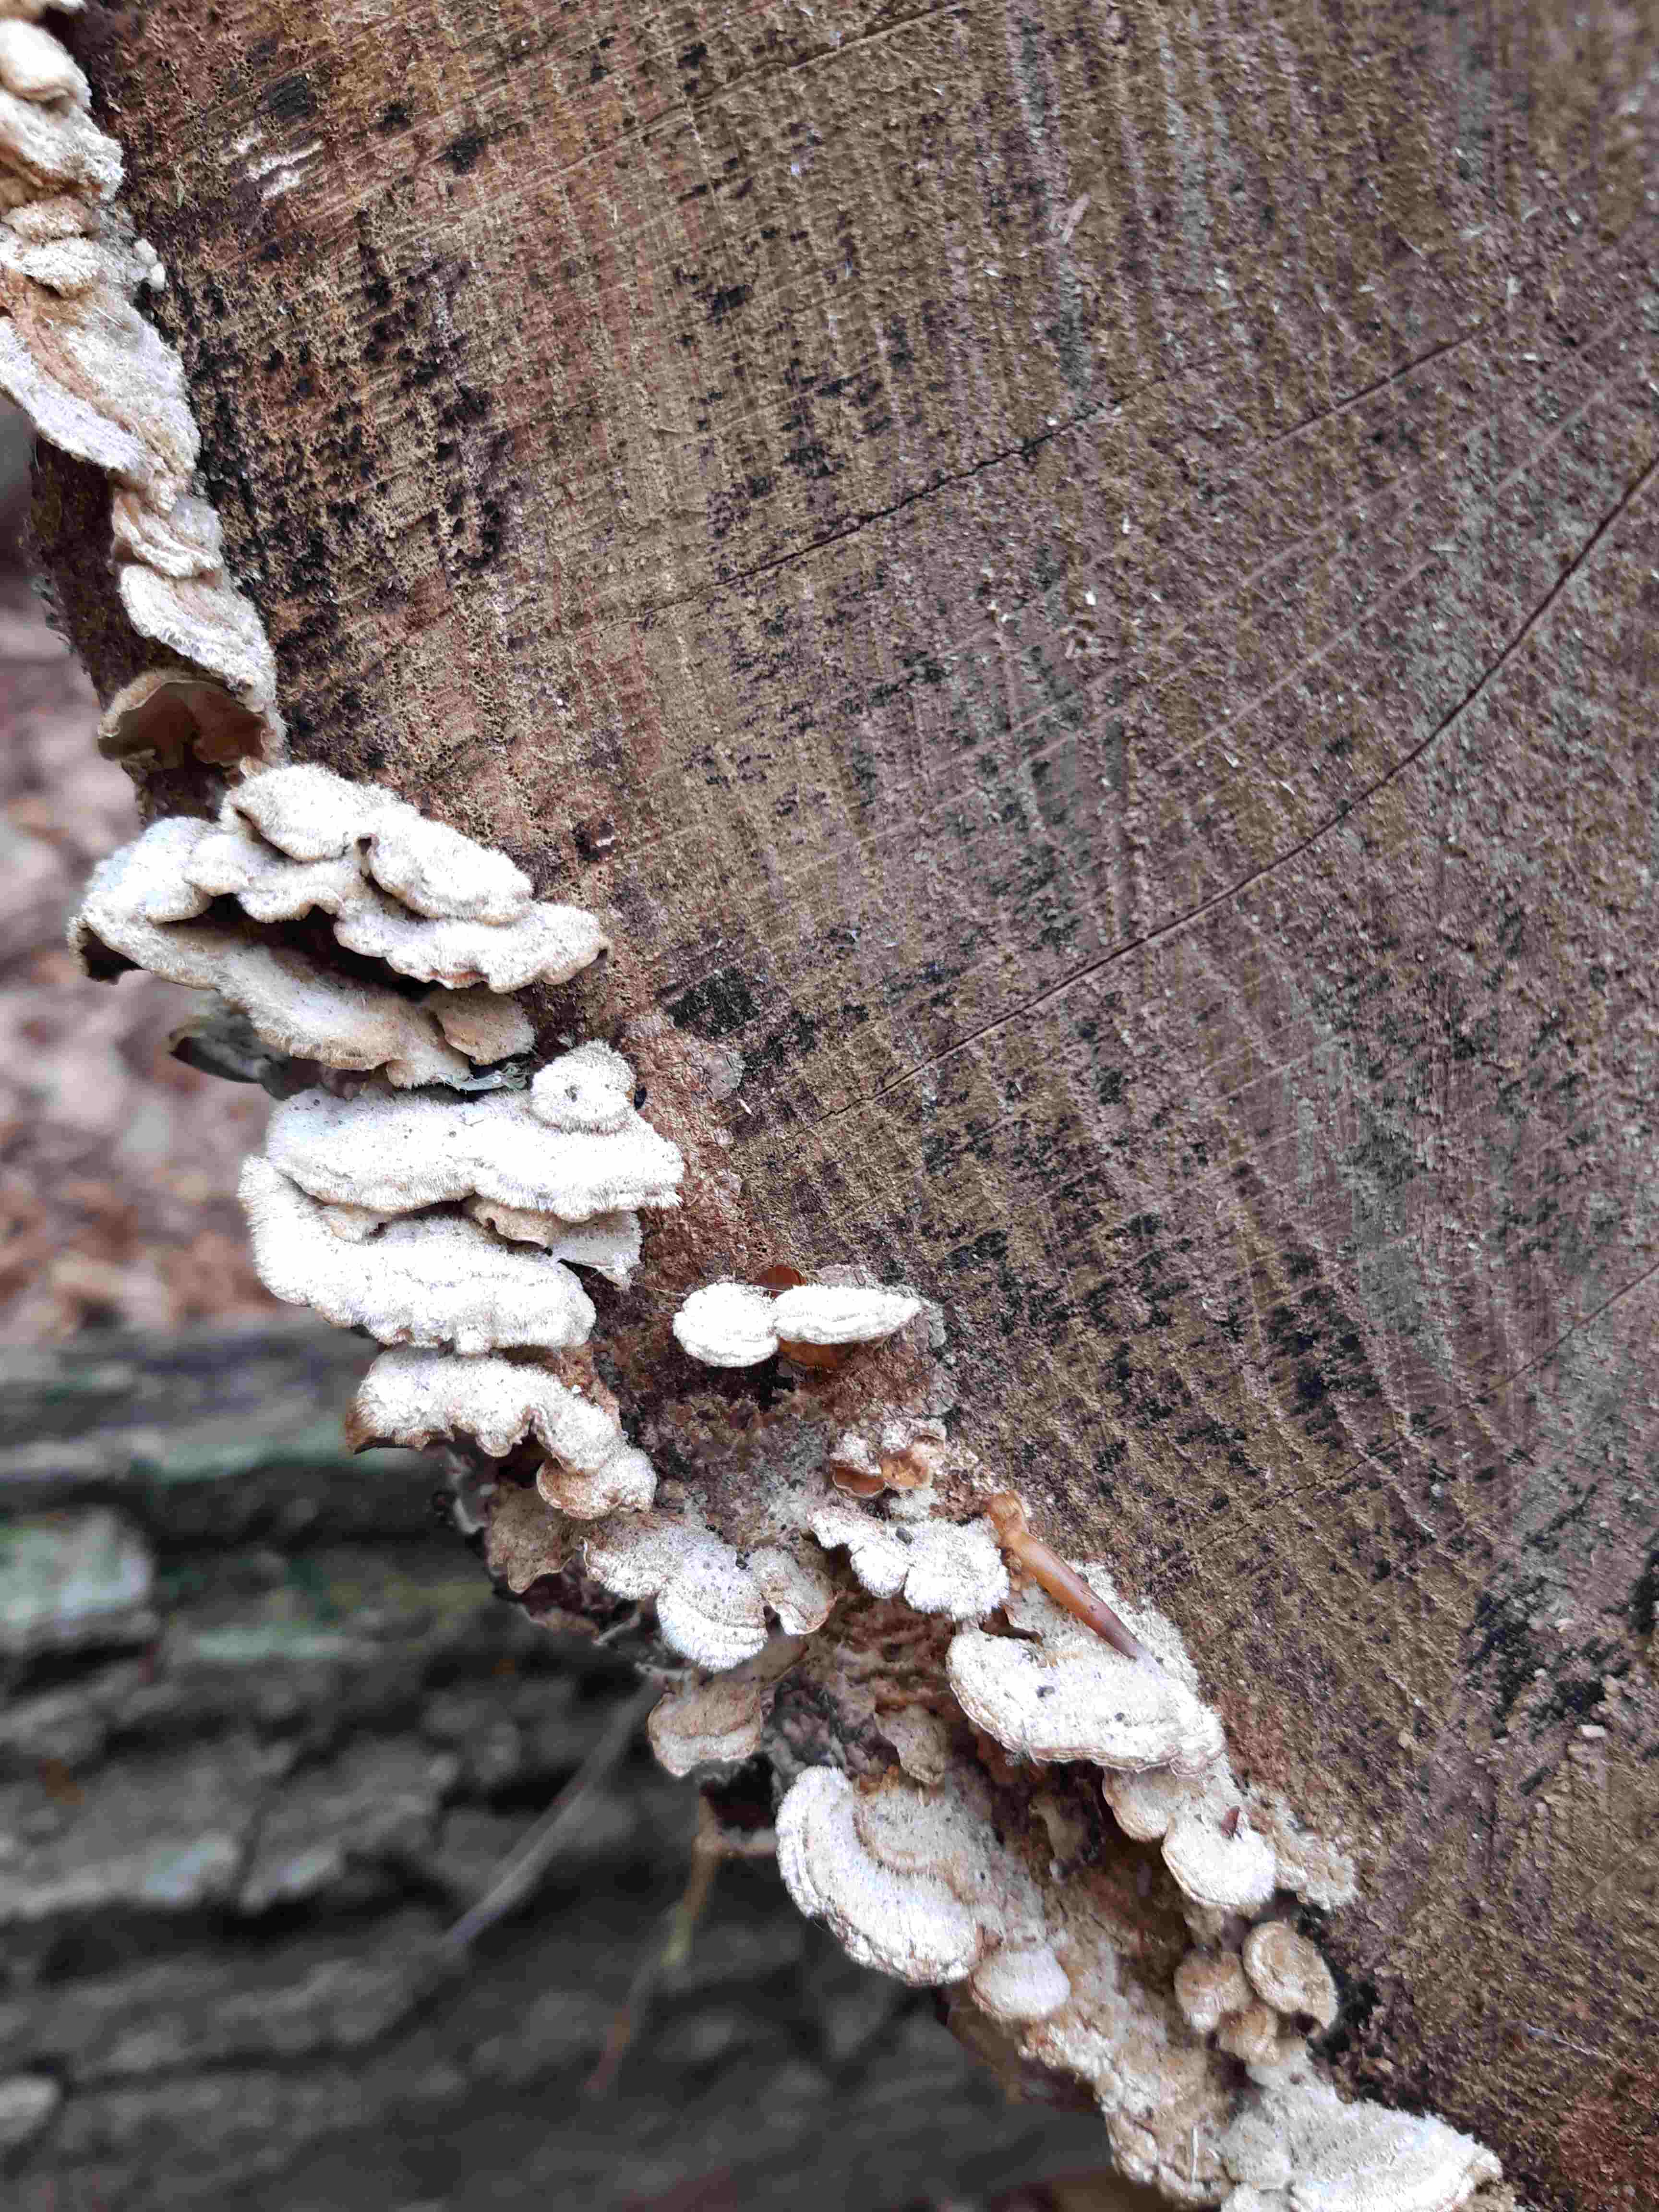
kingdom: Fungi
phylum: Basidiomycota
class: Agaricomycetes
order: Russulales
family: Stereaceae
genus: Stereum
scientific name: Stereum hirsutum
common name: håret lædersvamp
